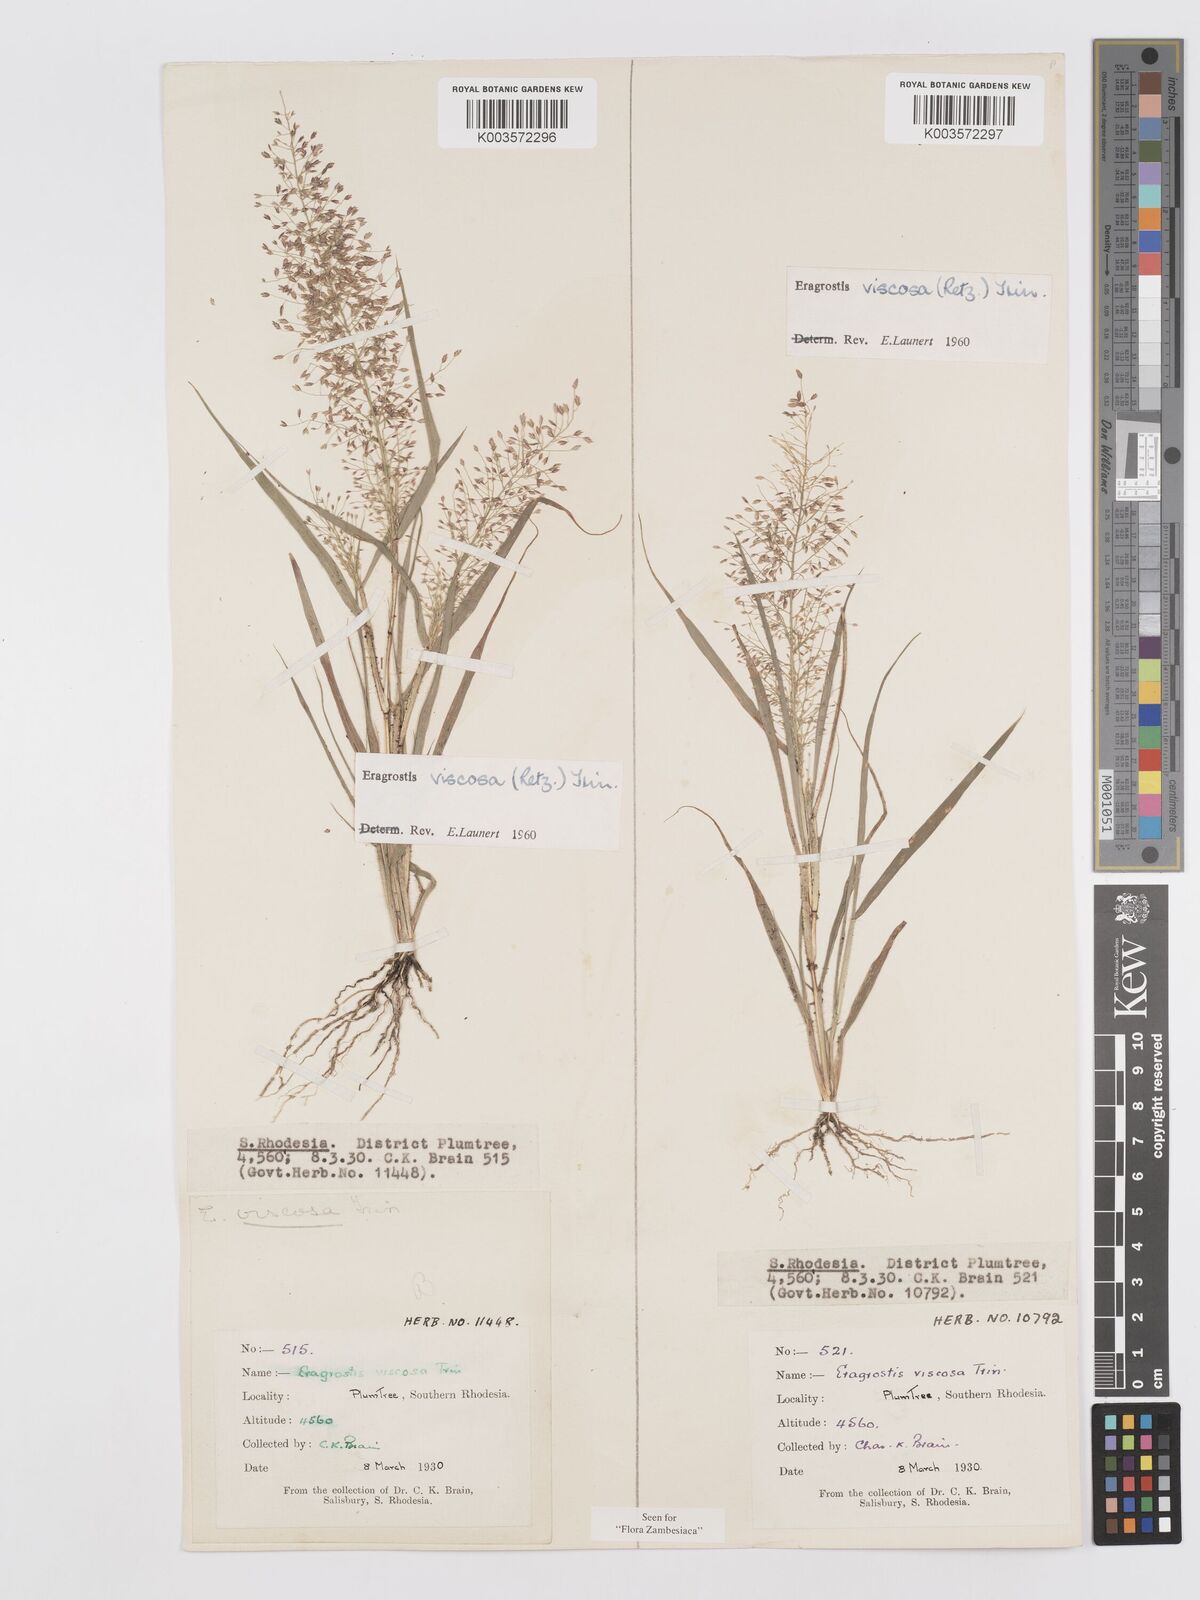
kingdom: Plantae
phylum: Tracheophyta
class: Liliopsida
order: Poales
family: Poaceae
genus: Eragrostis
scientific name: Eragrostis
